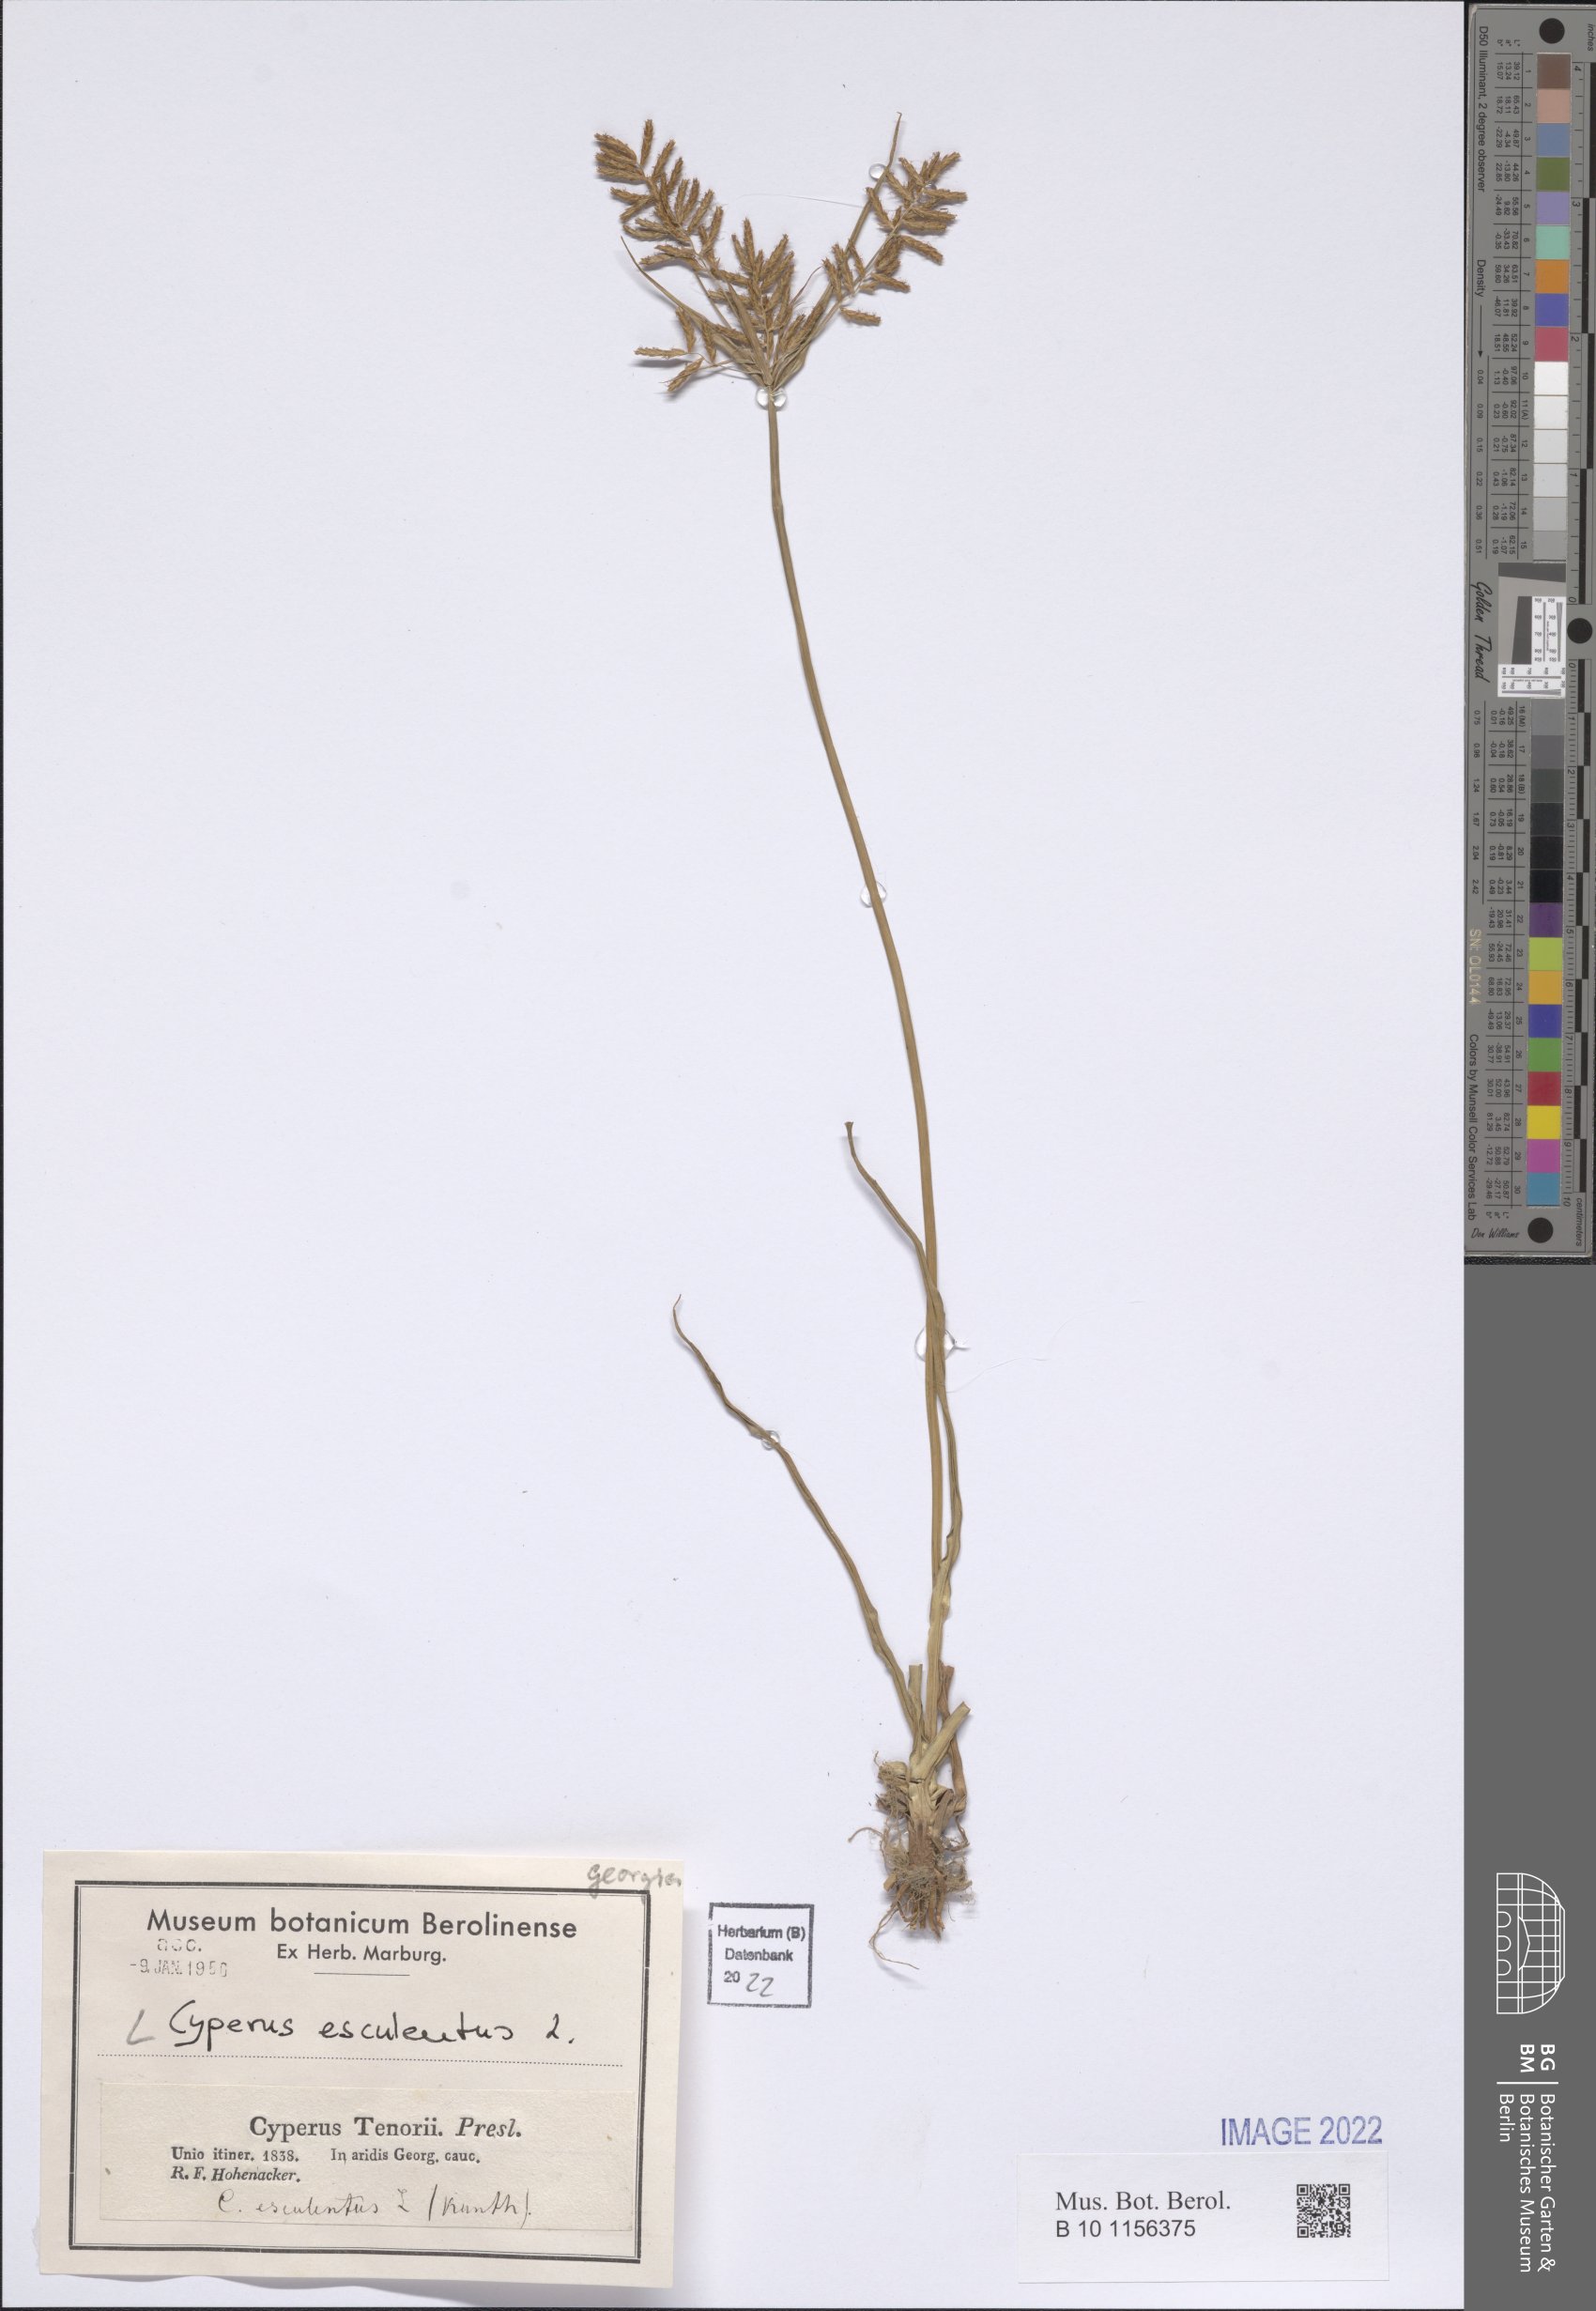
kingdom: Plantae
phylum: Tracheophyta
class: Liliopsida
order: Poales
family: Cyperaceae
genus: Cyperus
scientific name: Cyperus esculentus
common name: Yellow nutsedge
